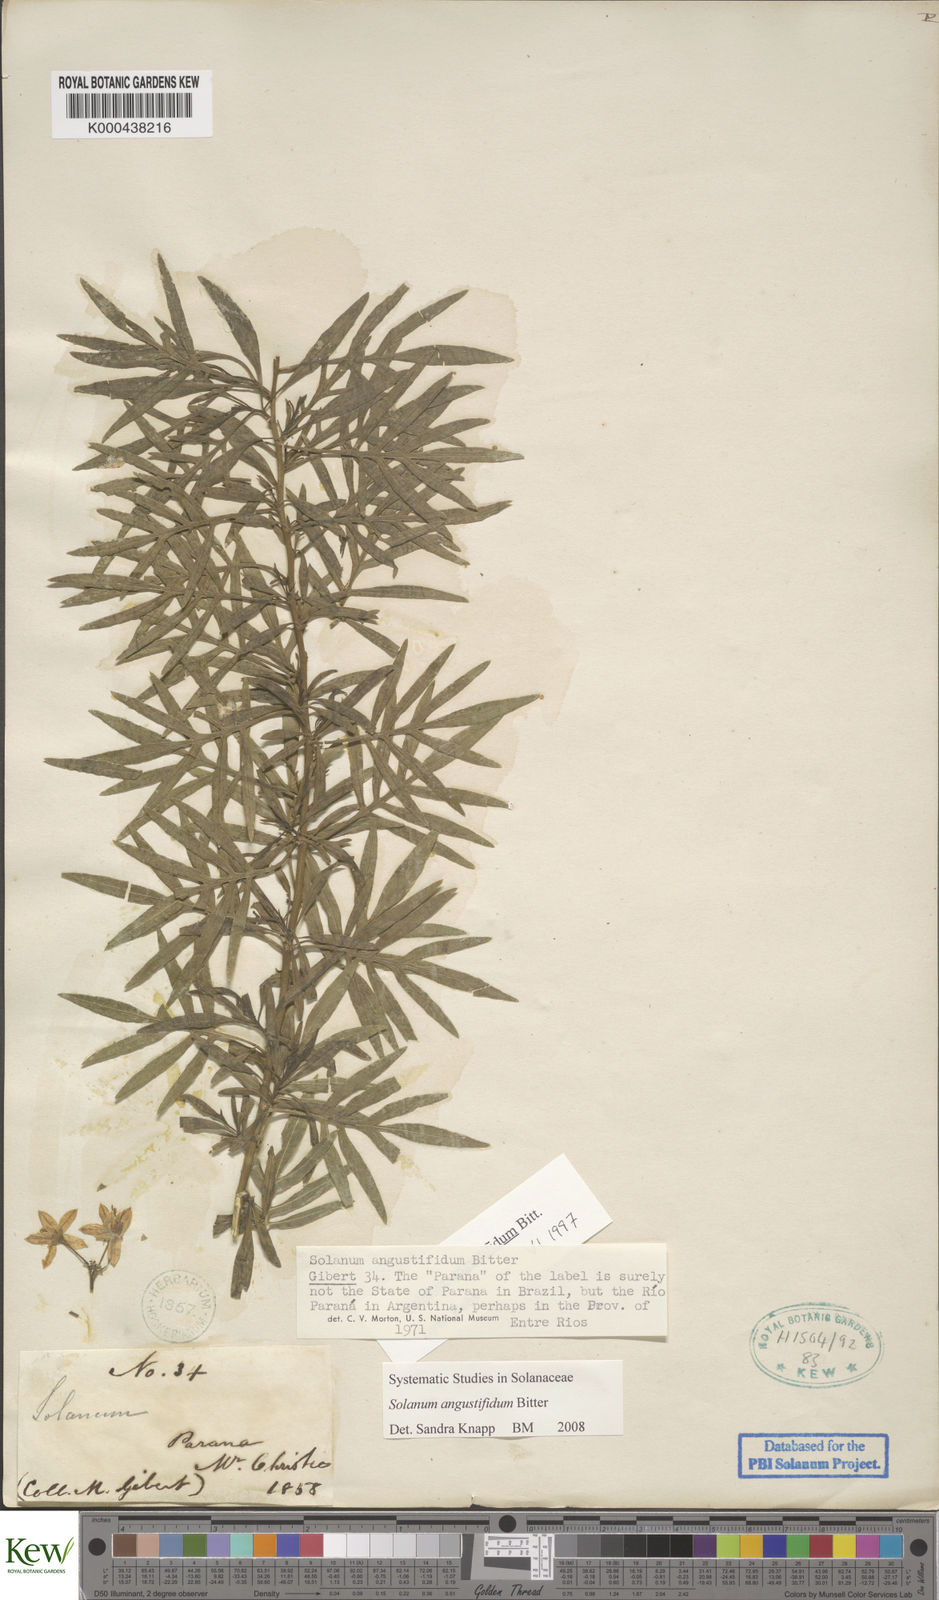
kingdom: Plantae
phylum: Tracheophyta
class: Magnoliopsida
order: Solanales
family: Solanaceae
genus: Solanum
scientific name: Solanum angustifidum
